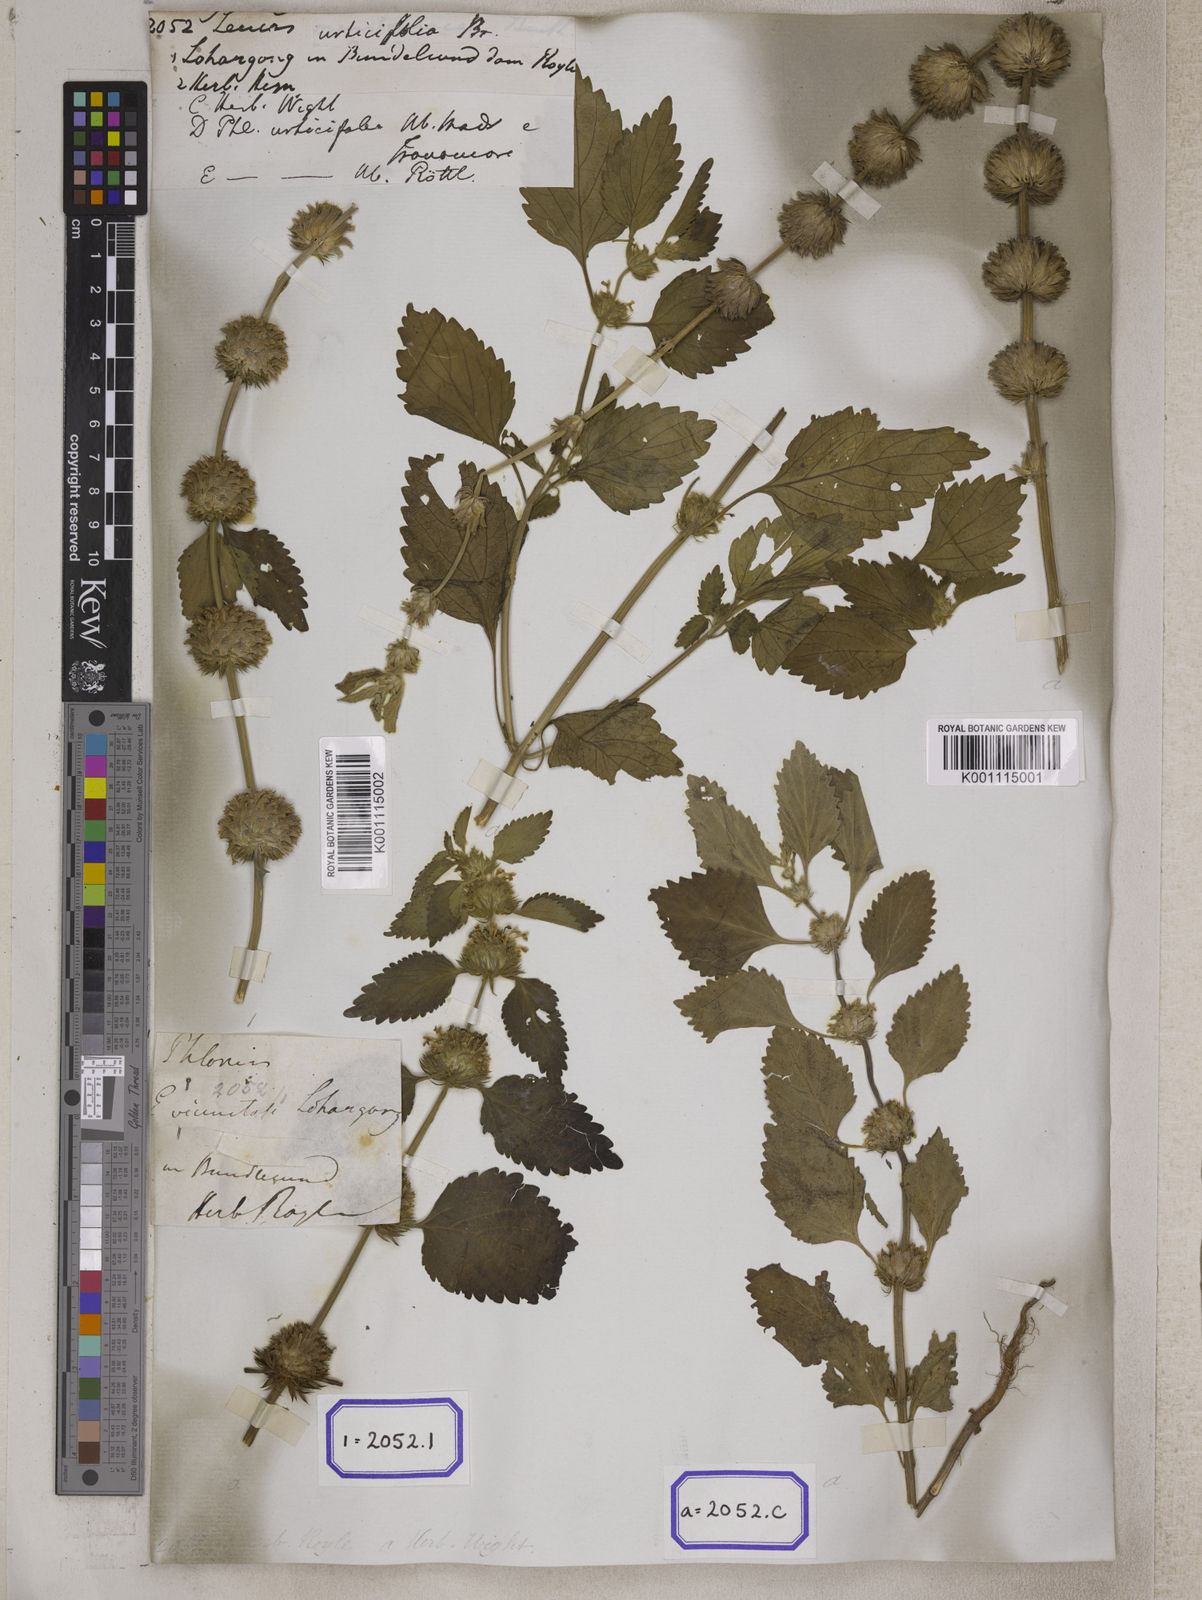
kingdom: Plantae
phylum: Tracheophyta
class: Magnoliopsida
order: Lamiales
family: Lamiaceae
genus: Leucas
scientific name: Leucas
